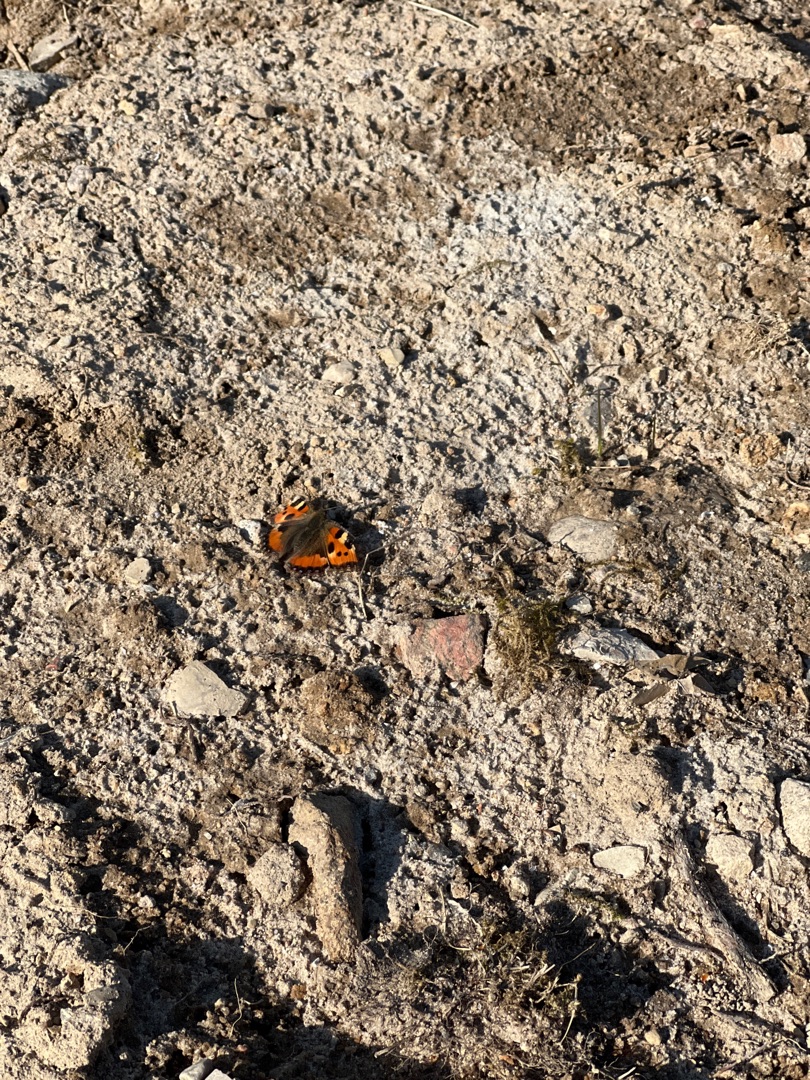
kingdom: Animalia
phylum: Arthropoda
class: Insecta
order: Lepidoptera
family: Nymphalidae
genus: Aglais
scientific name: Aglais urticae
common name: Nældens takvinge
